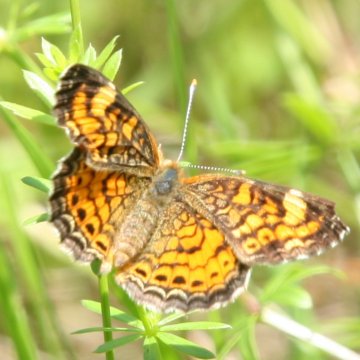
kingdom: Animalia
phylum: Arthropoda
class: Insecta
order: Lepidoptera
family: Nymphalidae
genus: Phyciodes
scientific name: Phyciodes tharos
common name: Pearl Crescent
